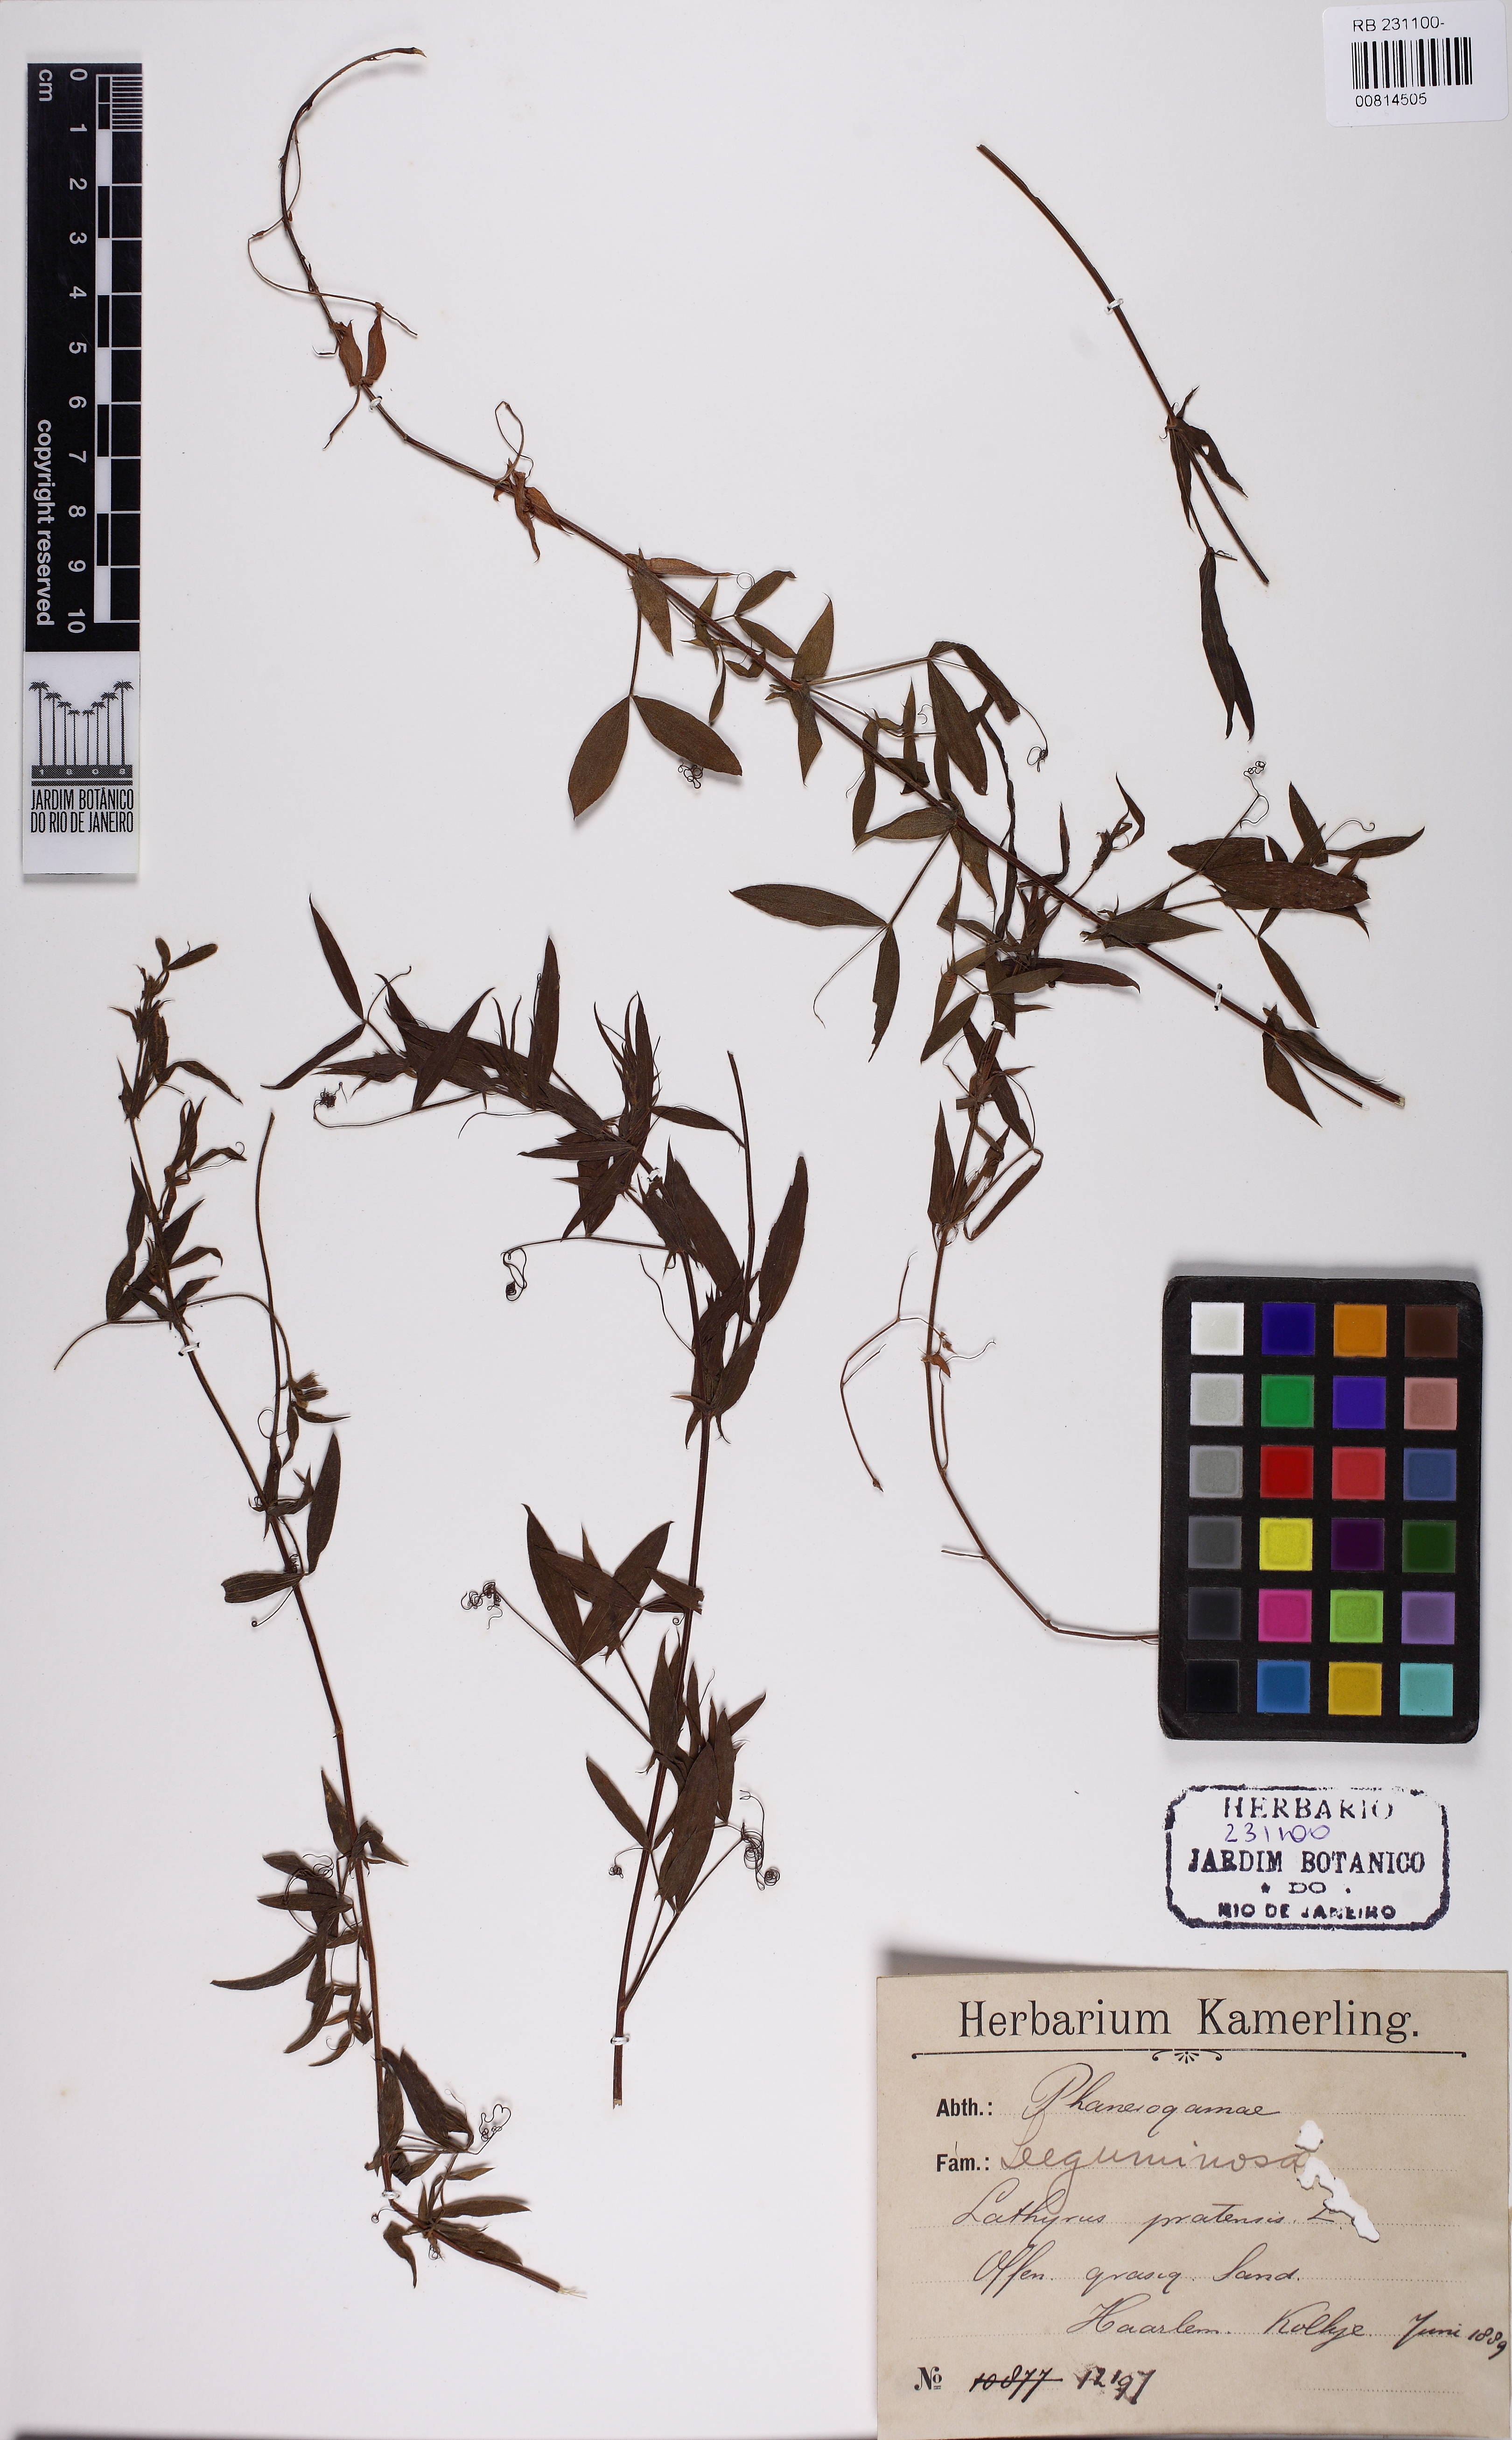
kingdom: Plantae
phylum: Tracheophyta
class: Magnoliopsida
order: Fabales
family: Fabaceae
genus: Lathyrus
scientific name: Lathyrus pratensis
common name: Meadow vetchling
